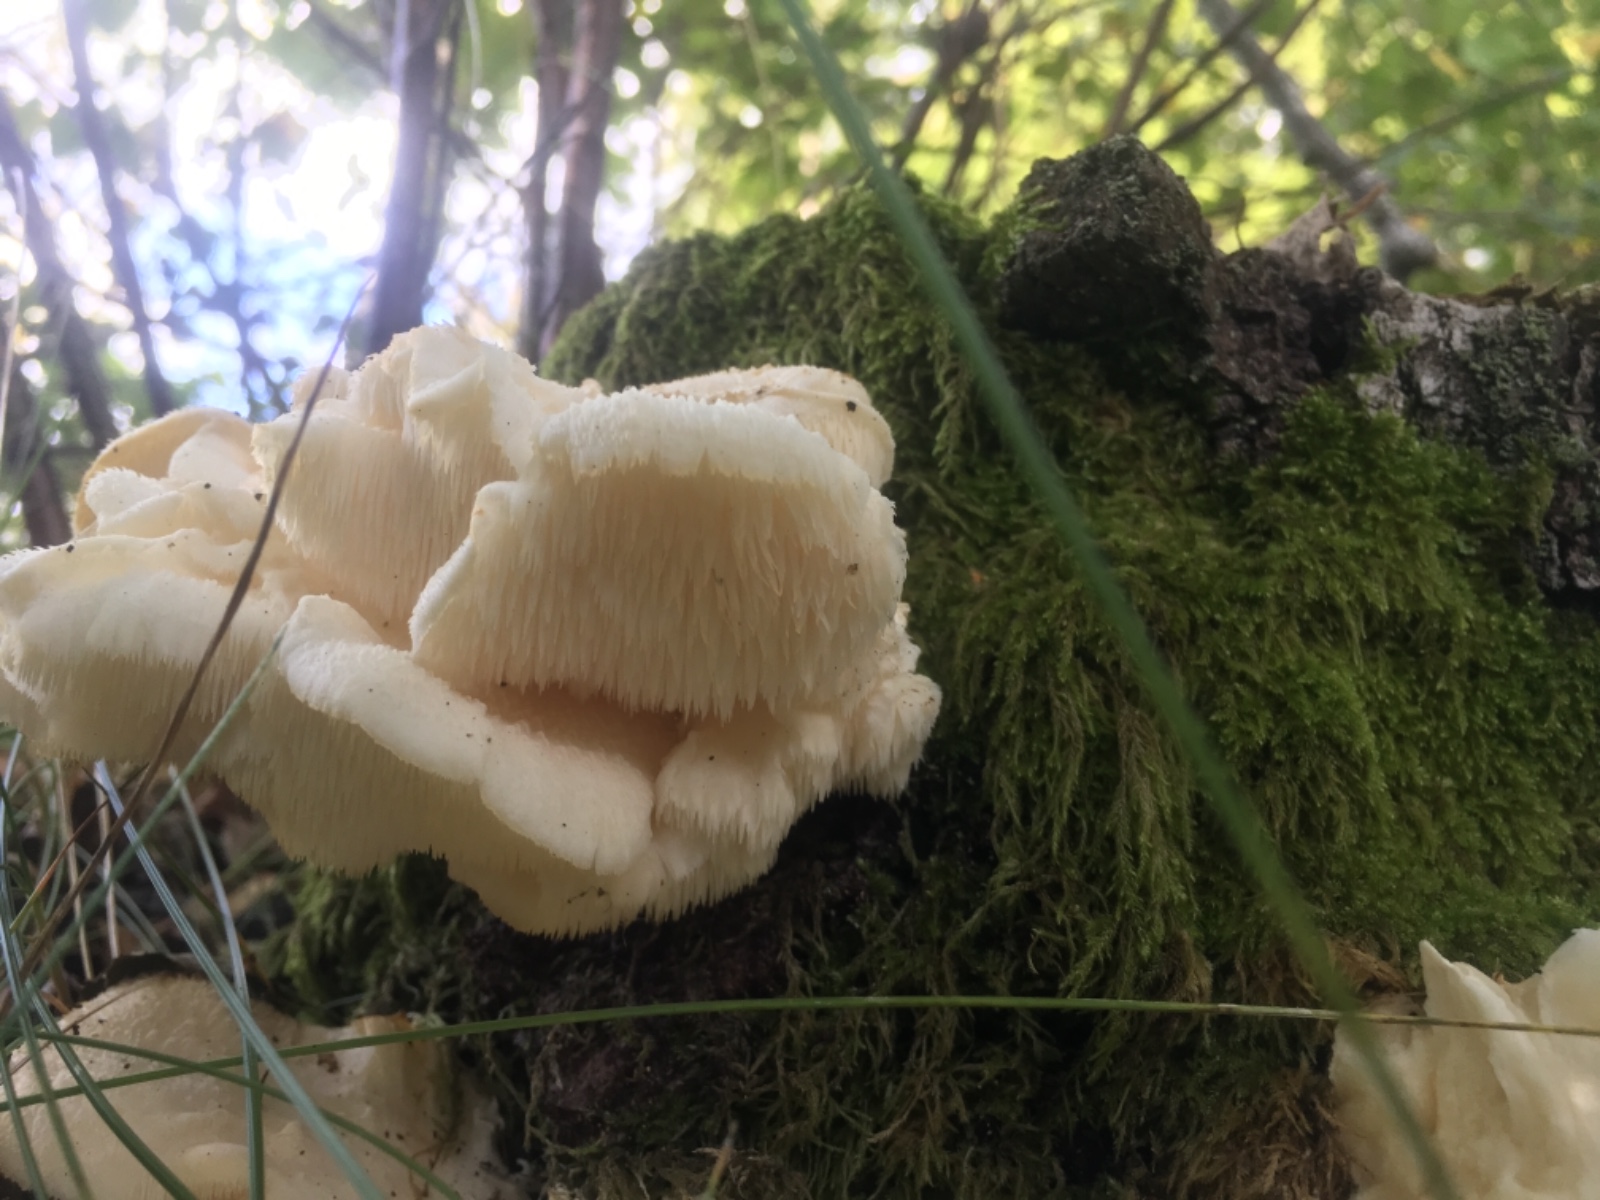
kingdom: Fungi
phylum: Basidiomycota
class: Agaricomycetes
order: Russulales
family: Hericiaceae
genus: Hericium
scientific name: Hericium cirrhatum
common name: børstepigsvamp
